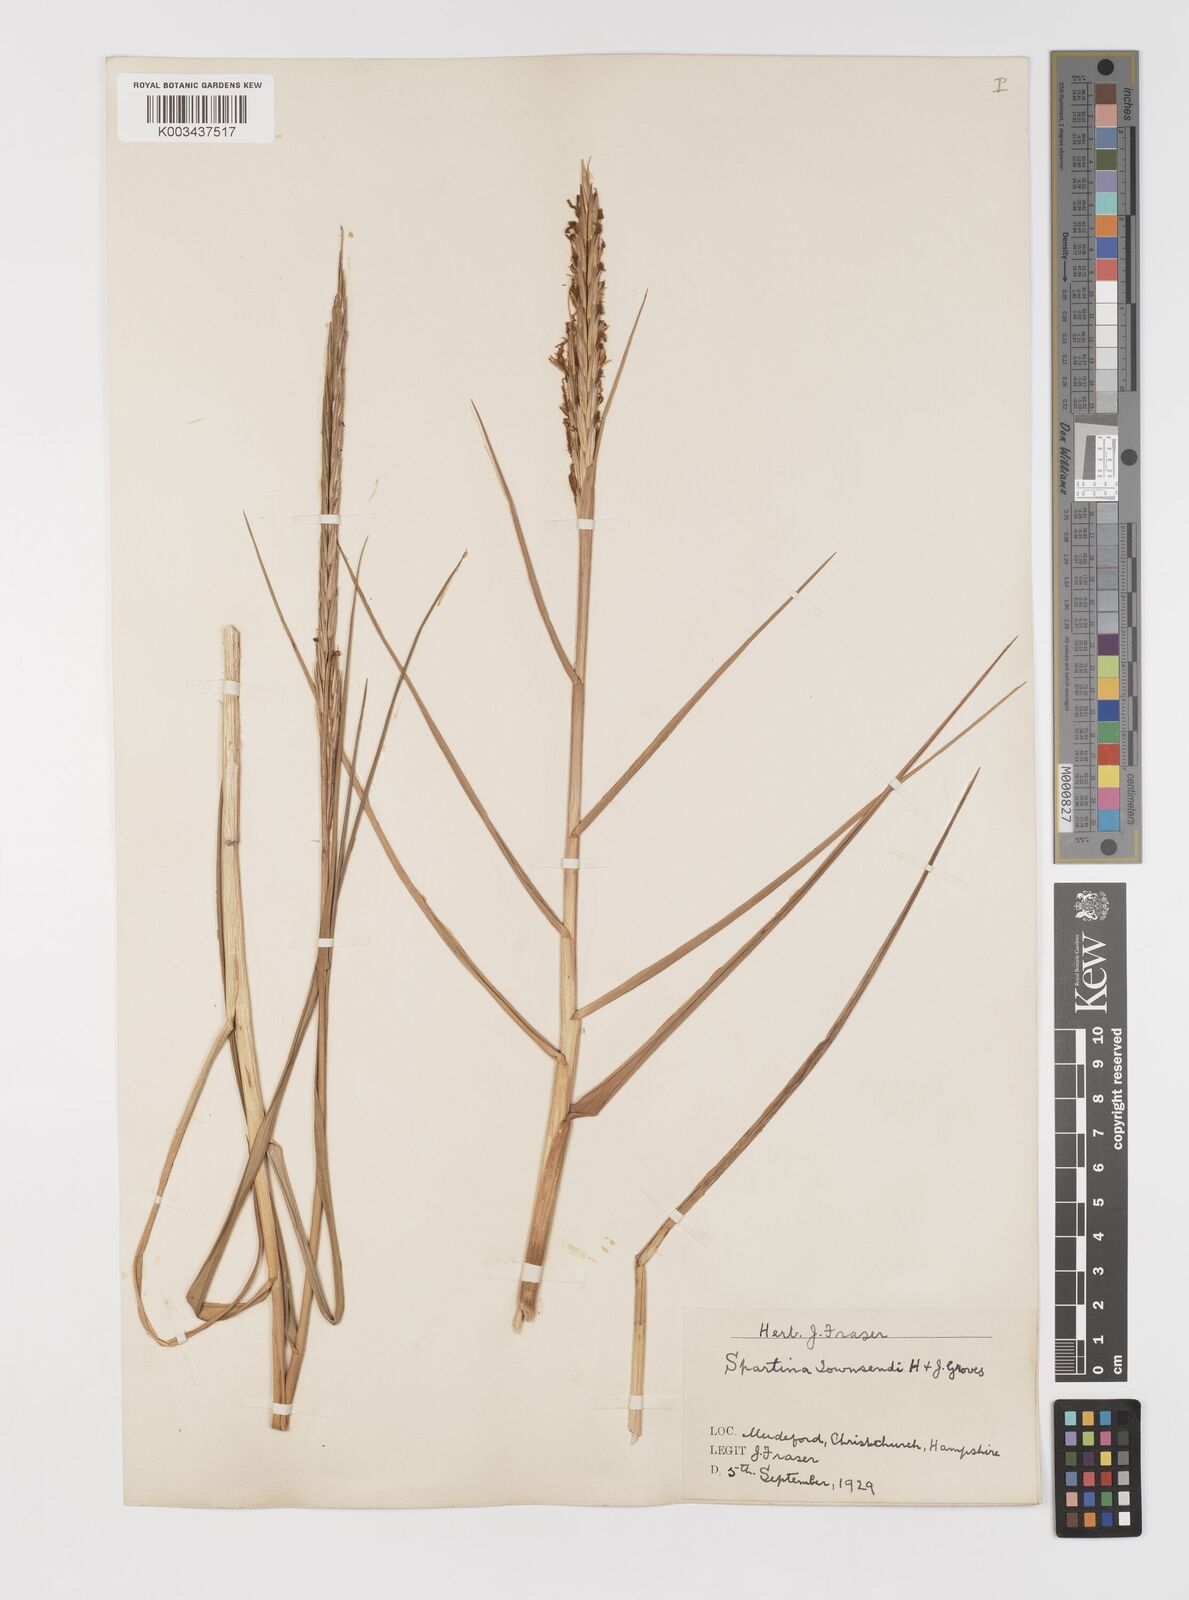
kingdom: Plantae
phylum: Tracheophyta
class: Liliopsida
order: Poales
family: Poaceae
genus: Sporobolus
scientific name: Sporobolus anglicus
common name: English cordgrass
